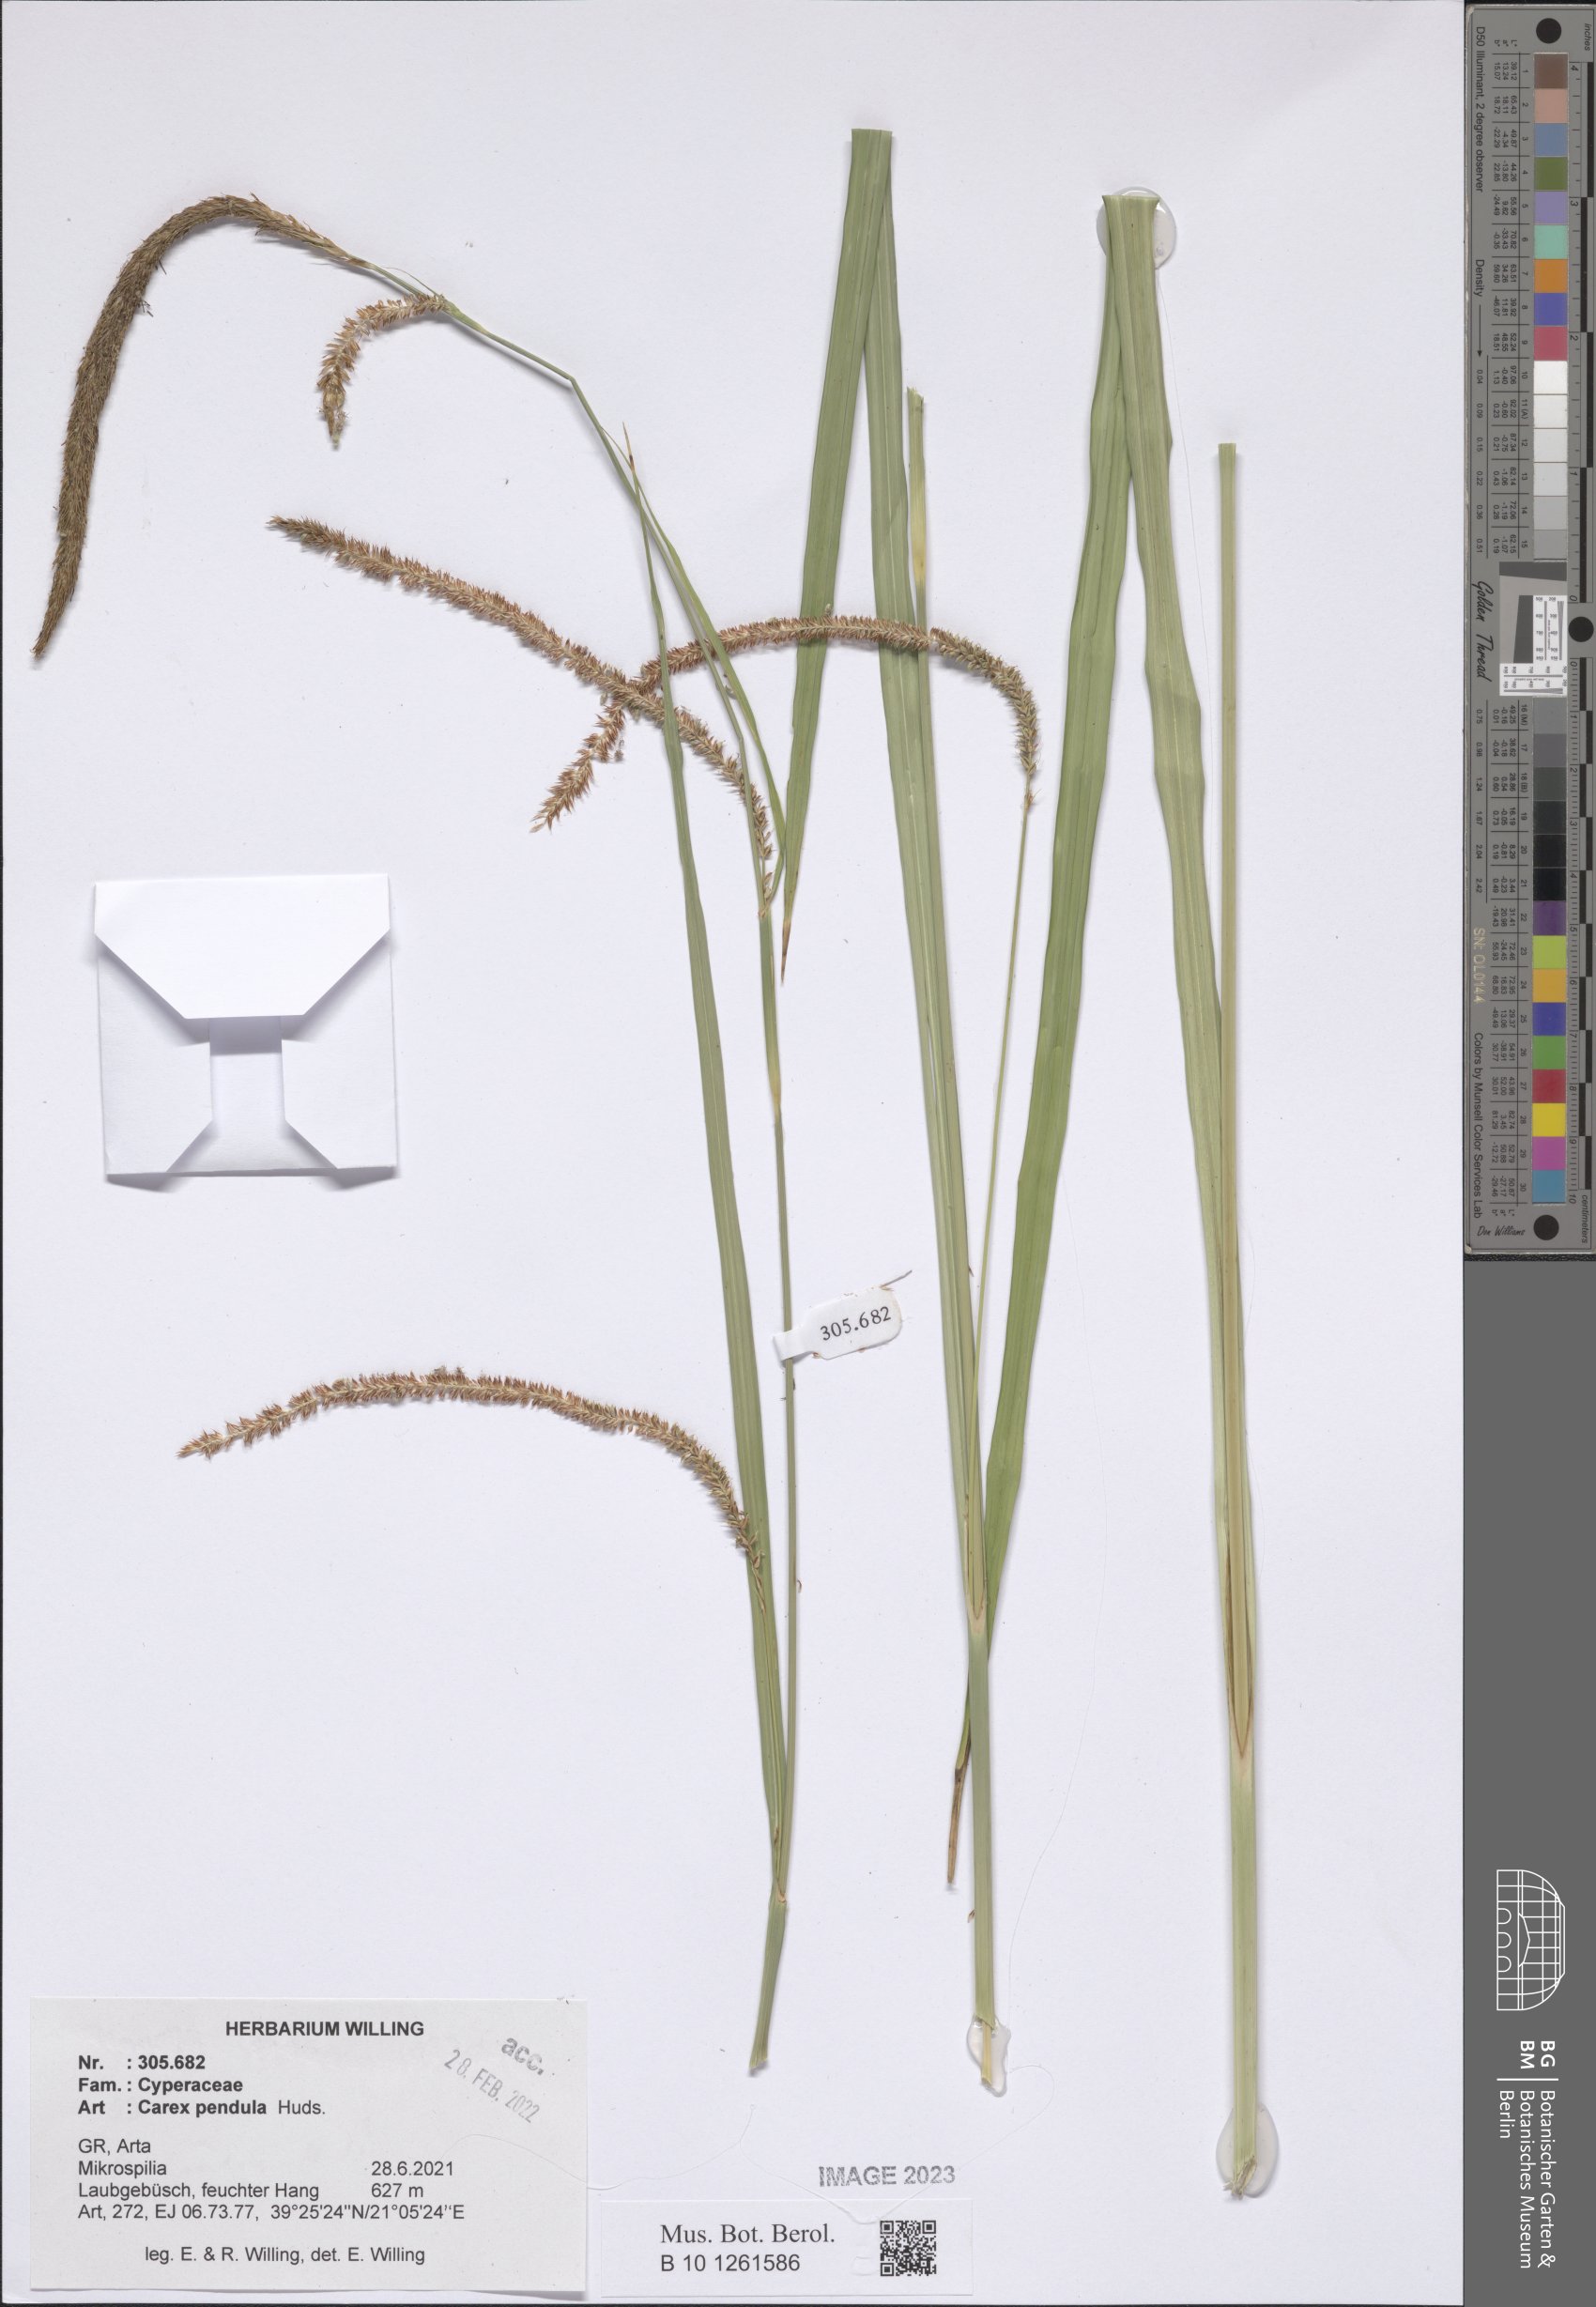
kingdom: Plantae
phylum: Tracheophyta
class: Liliopsida
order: Poales
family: Cyperaceae
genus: Carex
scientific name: Carex pendula
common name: Pendulous sedge
